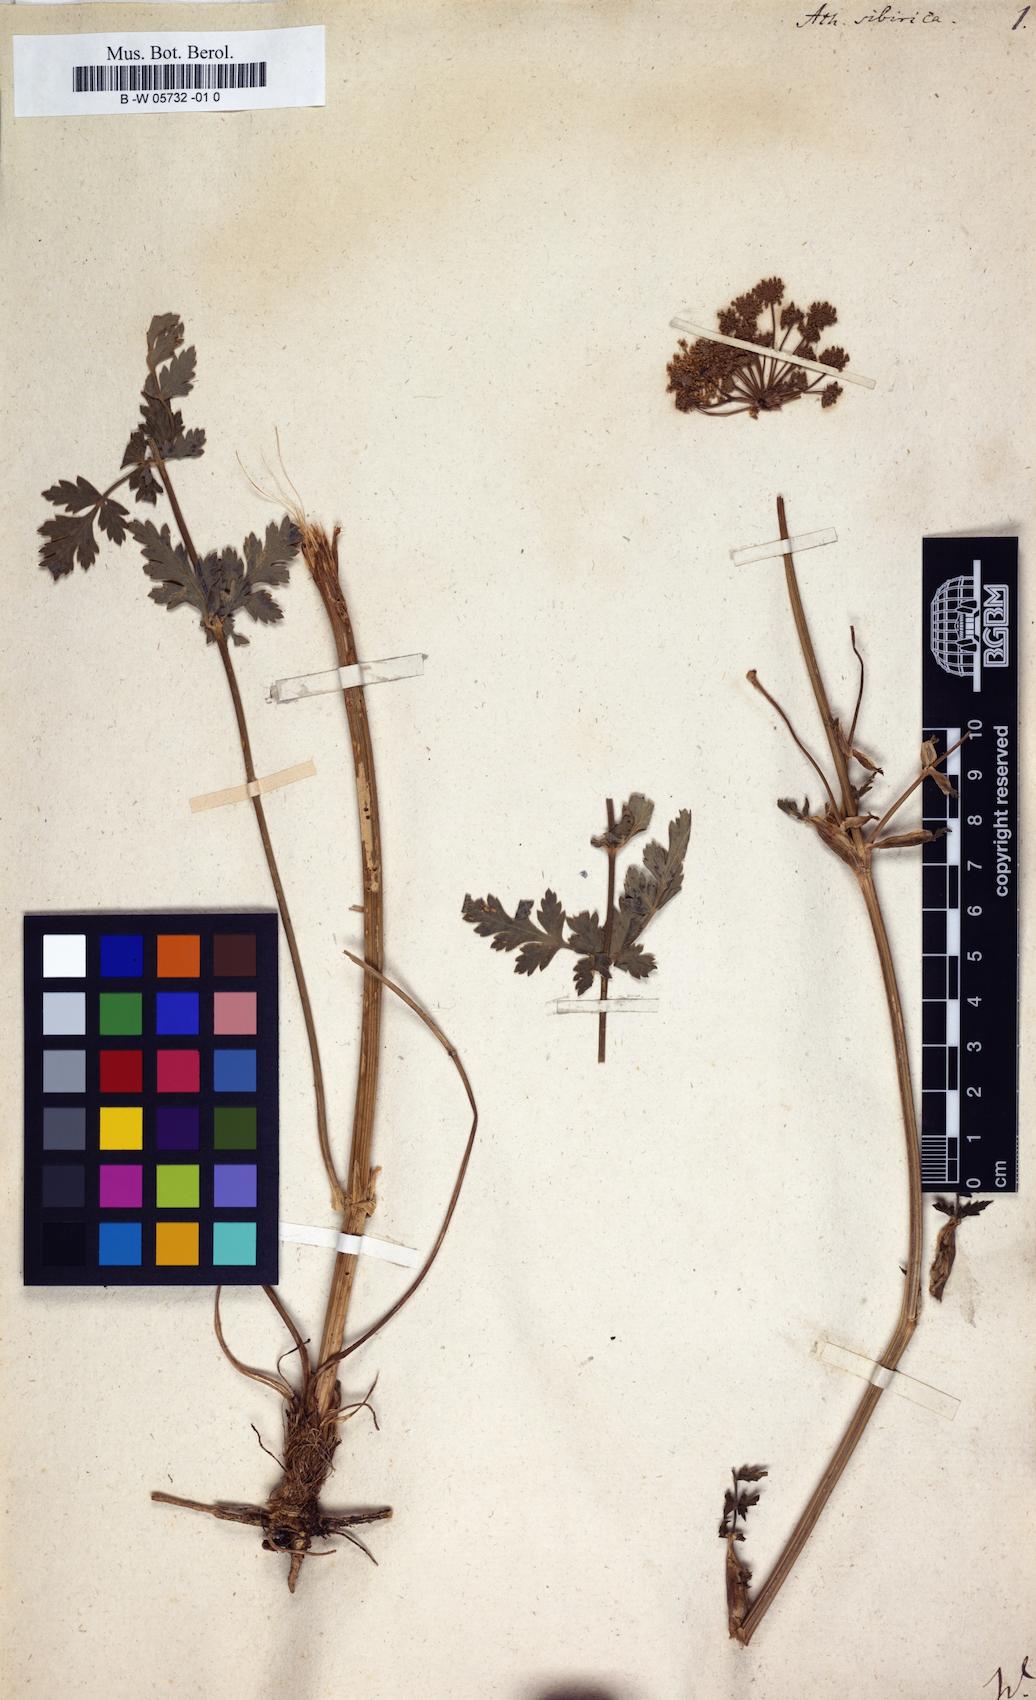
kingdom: Plantae
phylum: Tracheophyta
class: Magnoliopsida
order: Apiales
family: Apiaceae
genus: Seseli
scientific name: Seseli libanotis
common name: Mooncarrot
